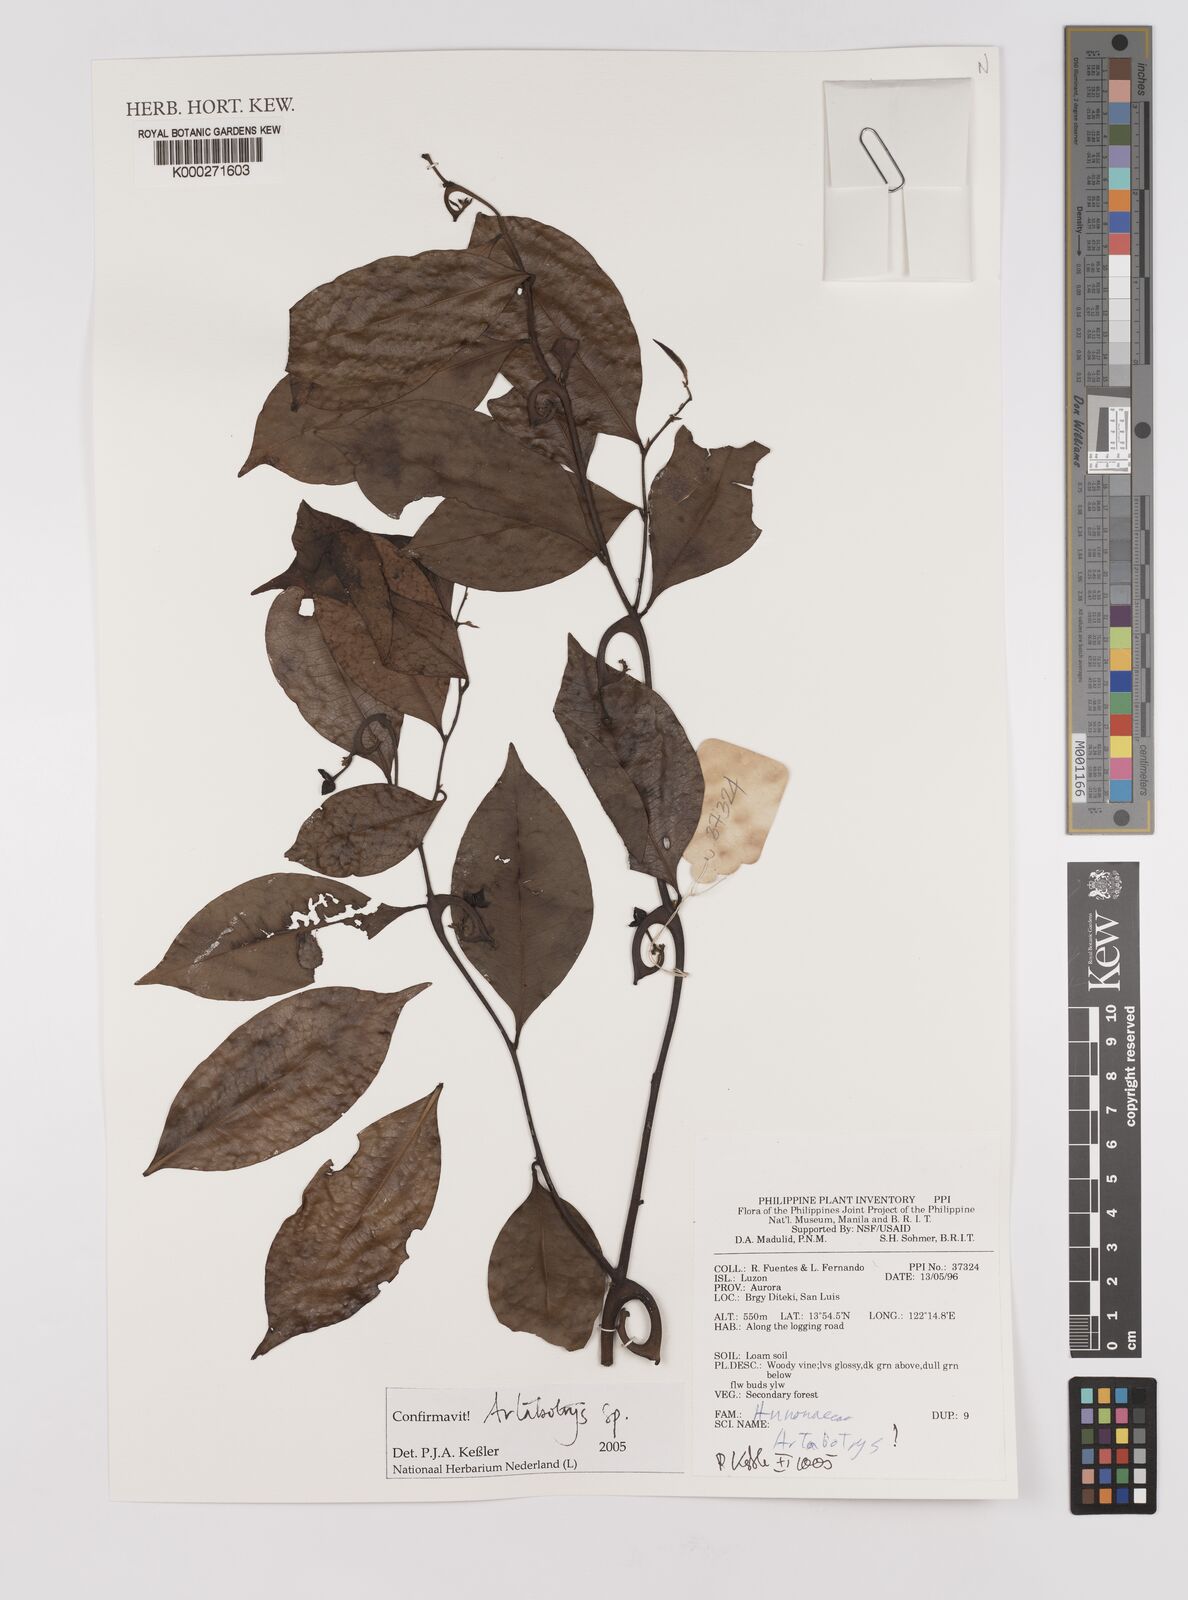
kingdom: Plantae
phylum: Tracheophyta
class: Magnoliopsida
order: Magnoliales
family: Annonaceae
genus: Artabotrys
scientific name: Artabotrys
